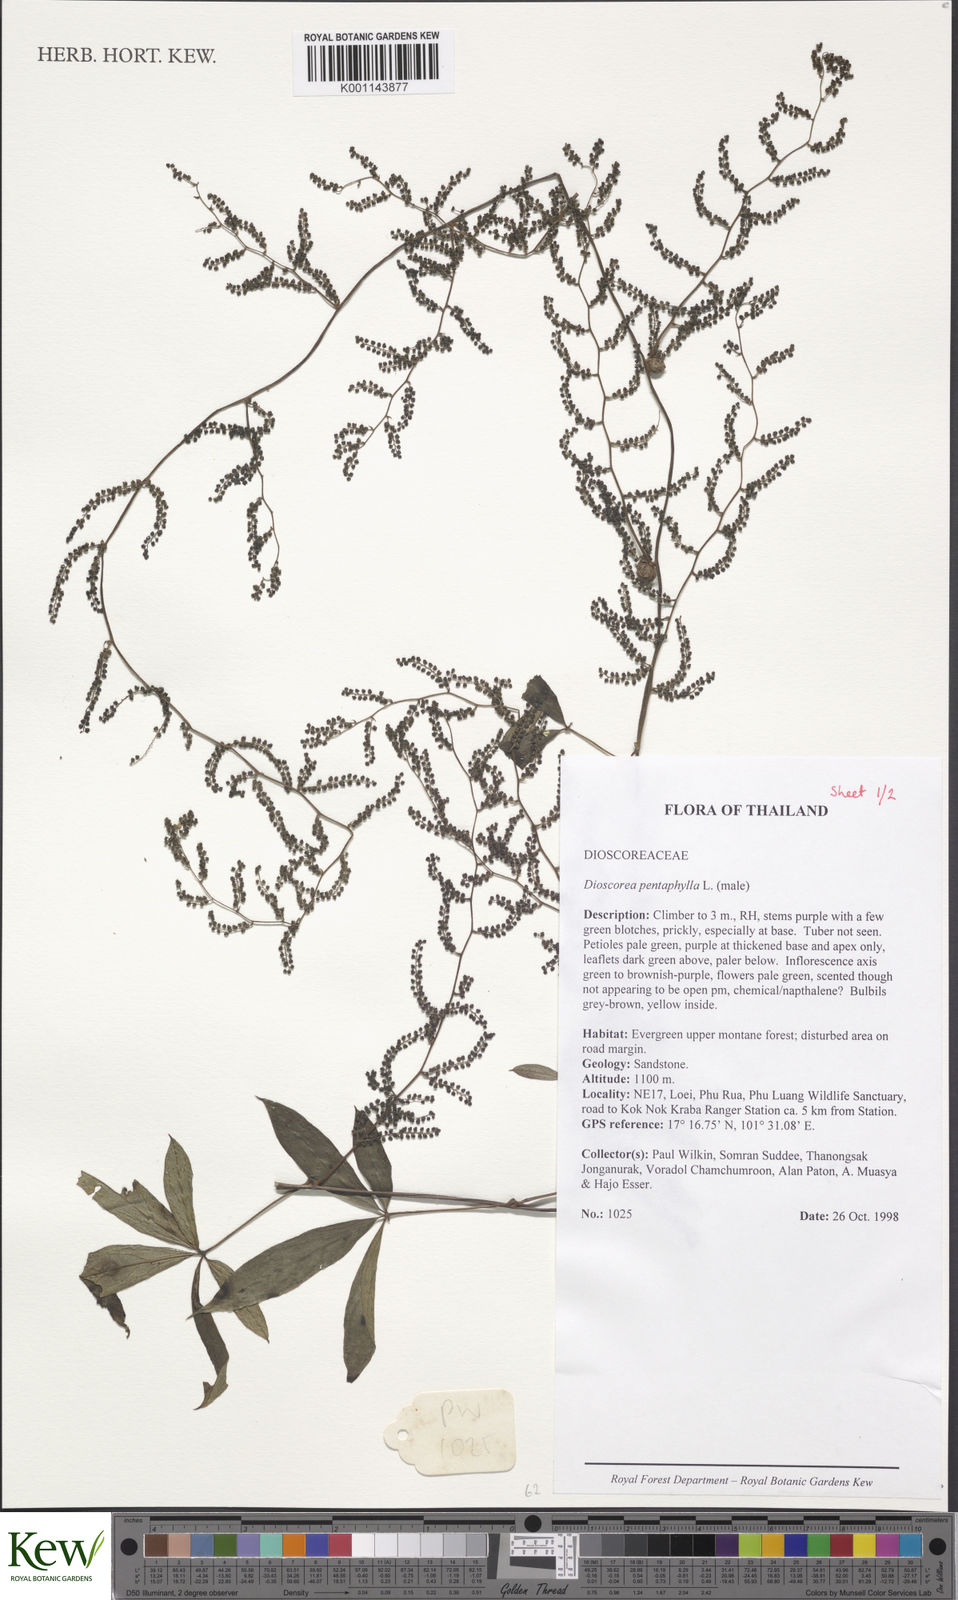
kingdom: Plantae
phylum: Tracheophyta
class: Liliopsida
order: Dioscoreales
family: Dioscoreaceae
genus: Dioscorea
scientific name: Dioscorea pentaphylla
